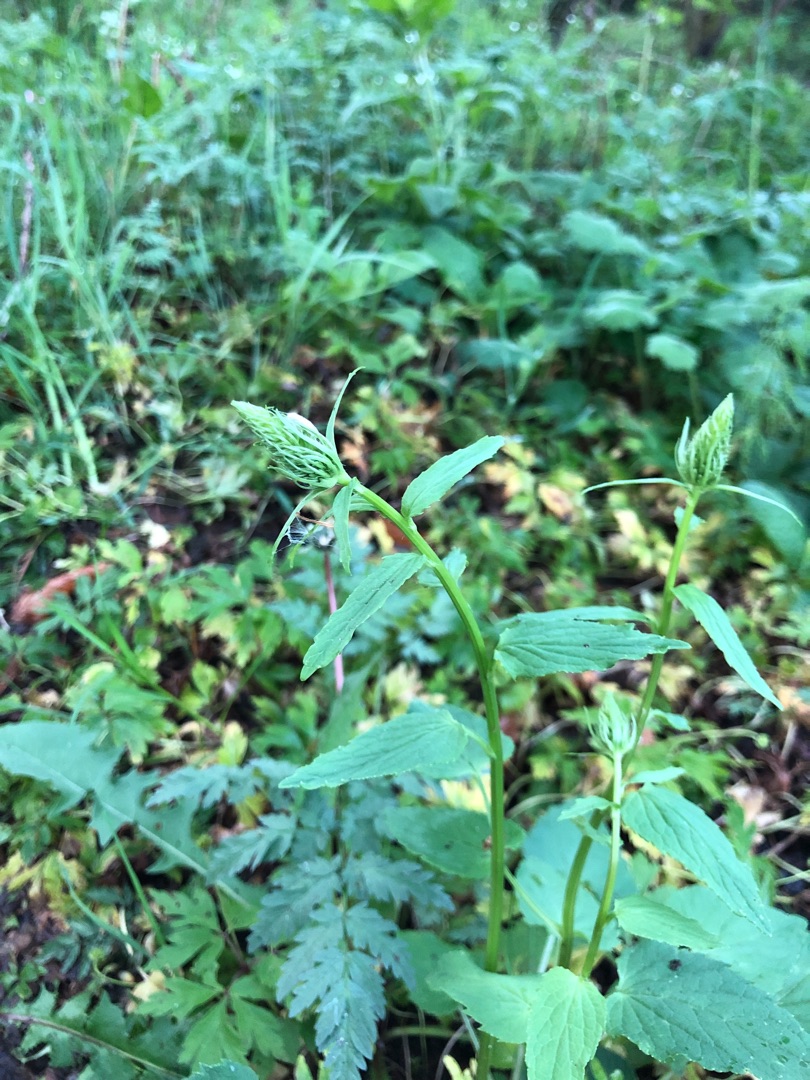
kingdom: Plantae
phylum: Tracheophyta
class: Magnoliopsida
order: Asterales
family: Campanulaceae
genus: Phyteuma
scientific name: Phyteuma spicatum
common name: Aks-rapunsel
